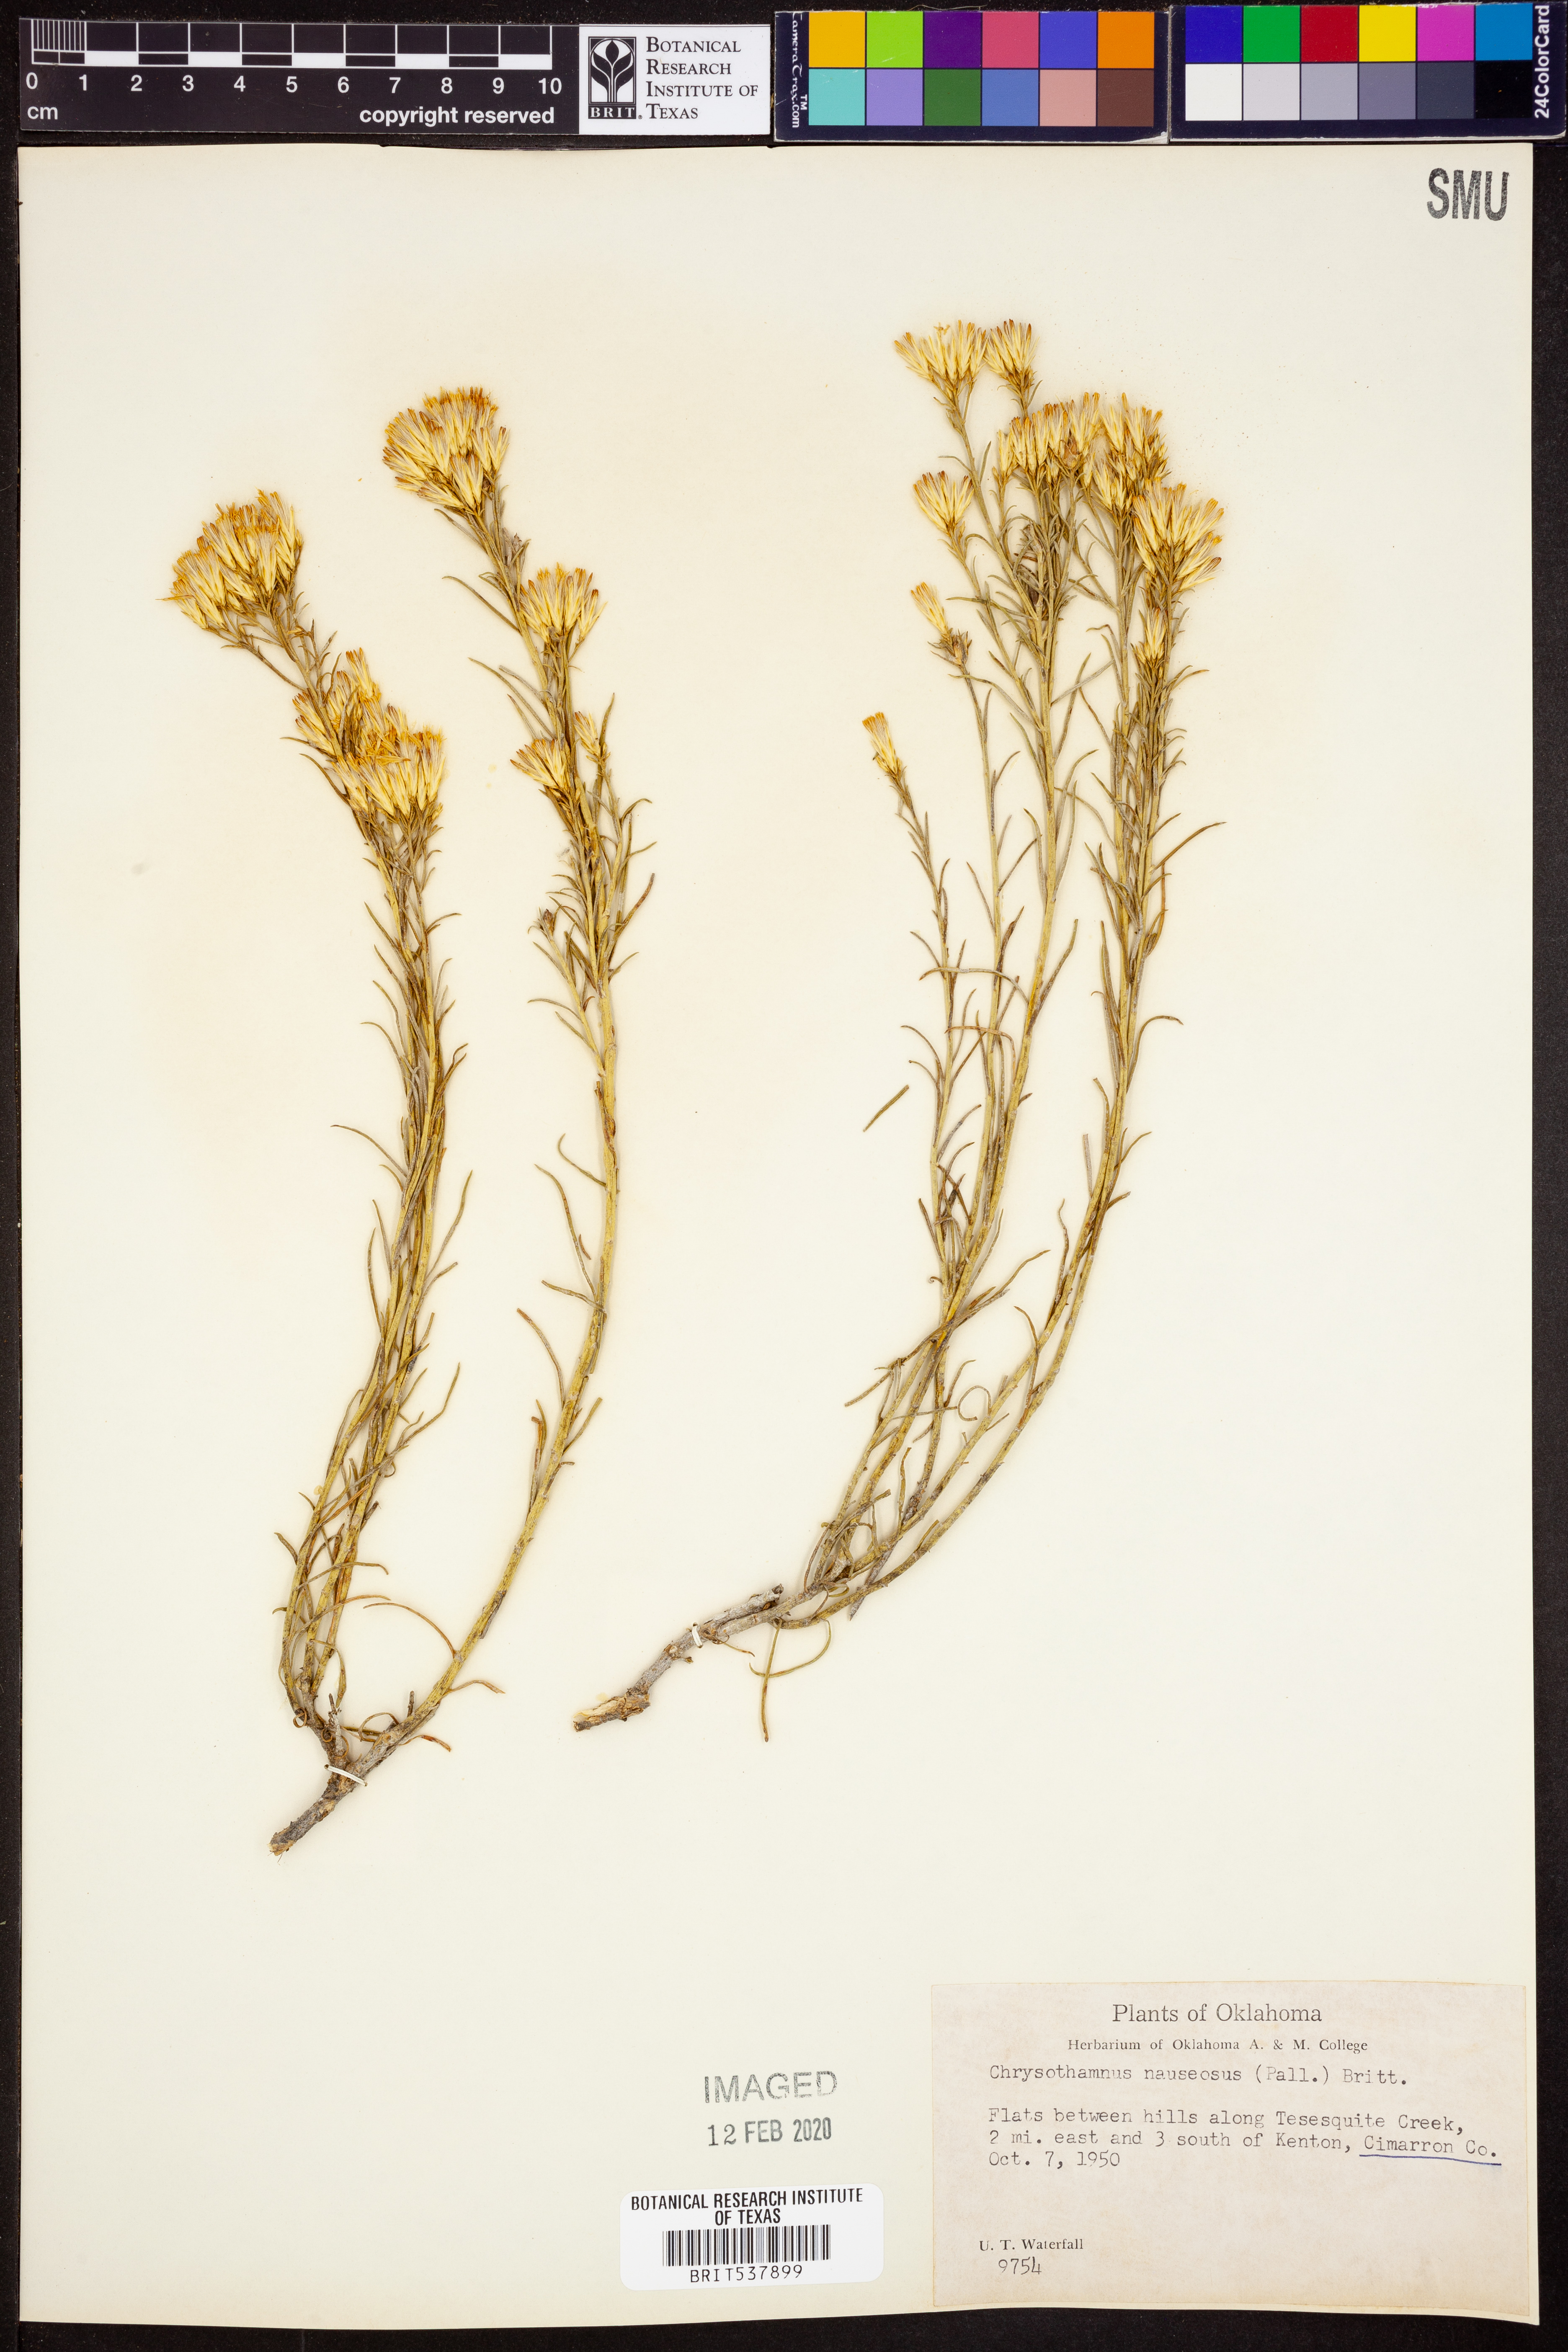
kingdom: Plantae
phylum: Tracheophyta
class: Magnoliopsida
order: Asterales
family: Asteraceae
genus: Ericameria
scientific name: Ericameria nauseosa
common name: Rubber rabbitbrush
